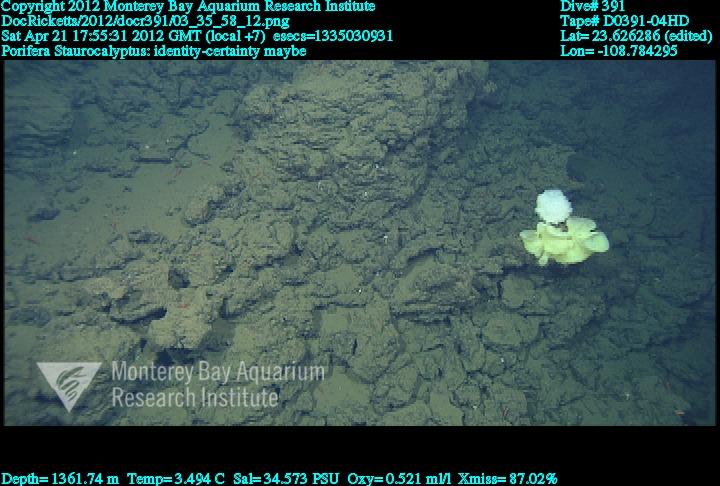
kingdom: Animalia
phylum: Porifera
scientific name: Porifera
